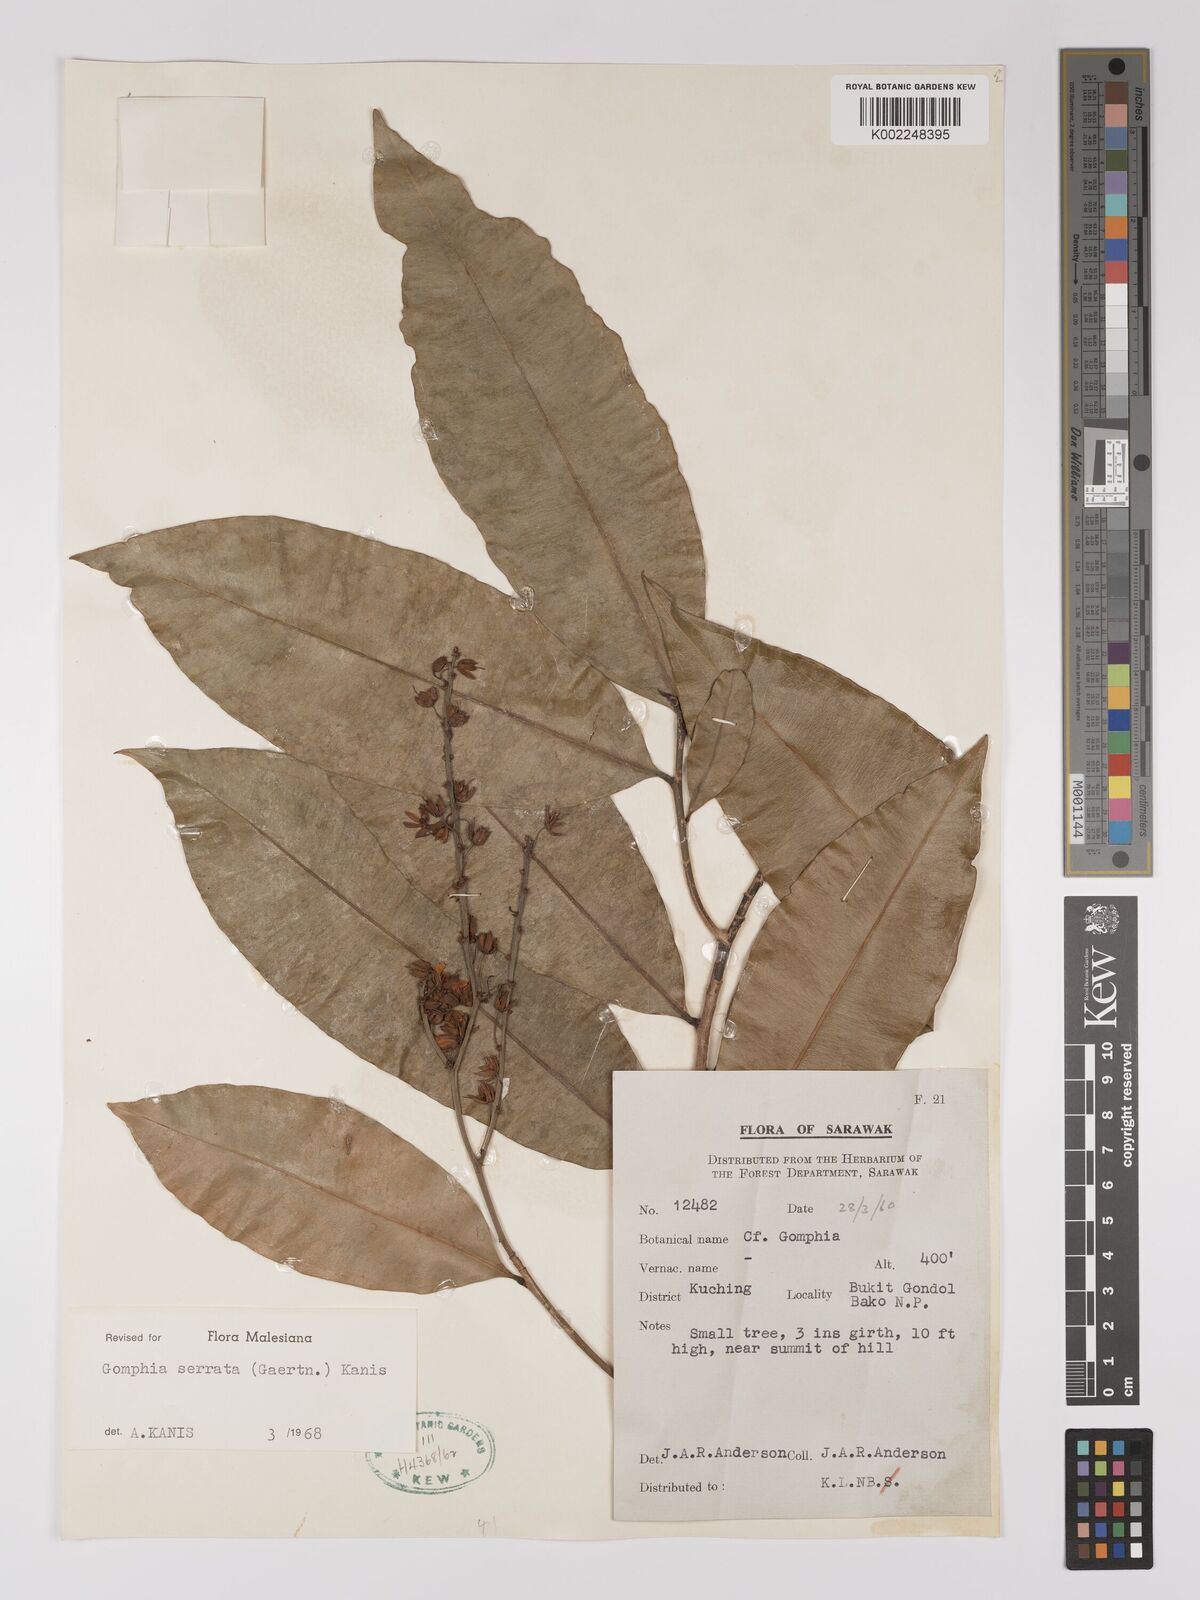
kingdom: Plantae
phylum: Tracheophyta
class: Magnoliopsida
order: Malpighiales
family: Ochnaceae
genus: Gomphia
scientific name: Gomphia serrata
